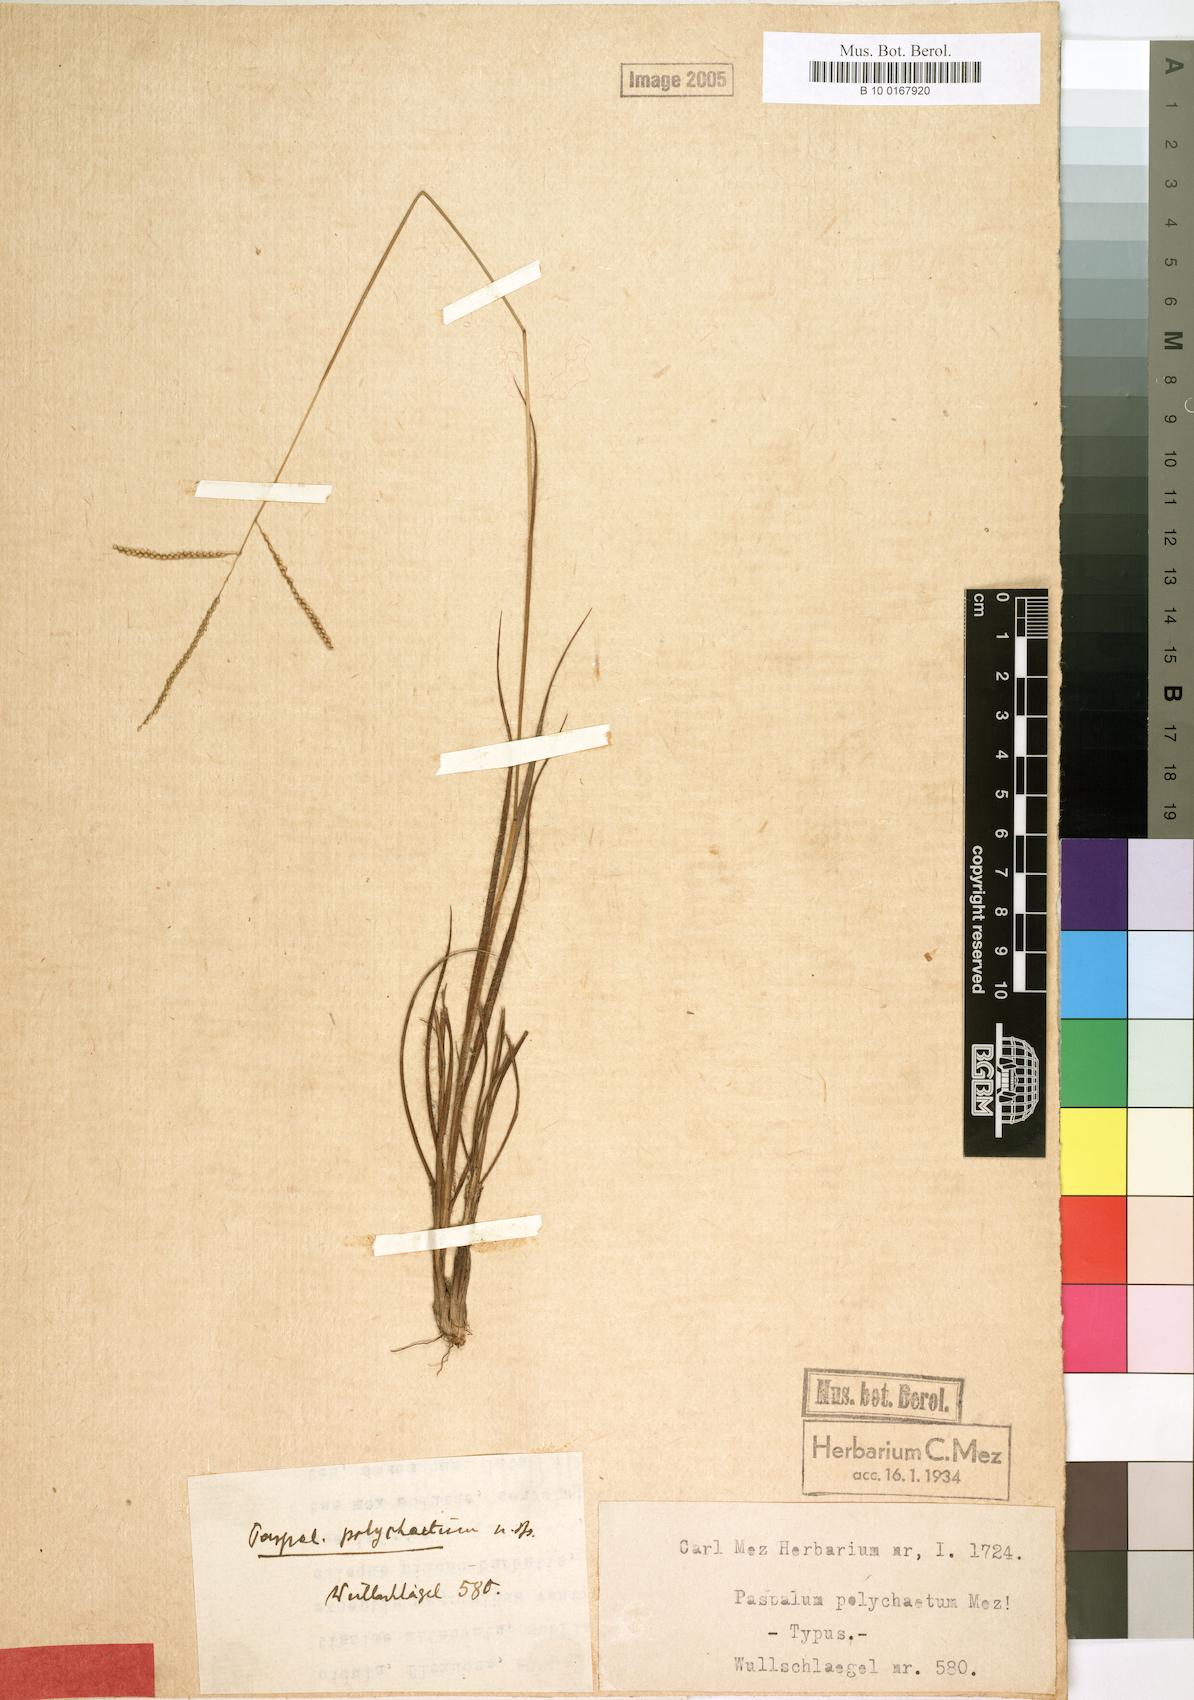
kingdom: Plantae
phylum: Tracheophyta
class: Liliopsida
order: Poales
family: Poaceae
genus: Paspalum
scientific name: Paspalum hyalinum
